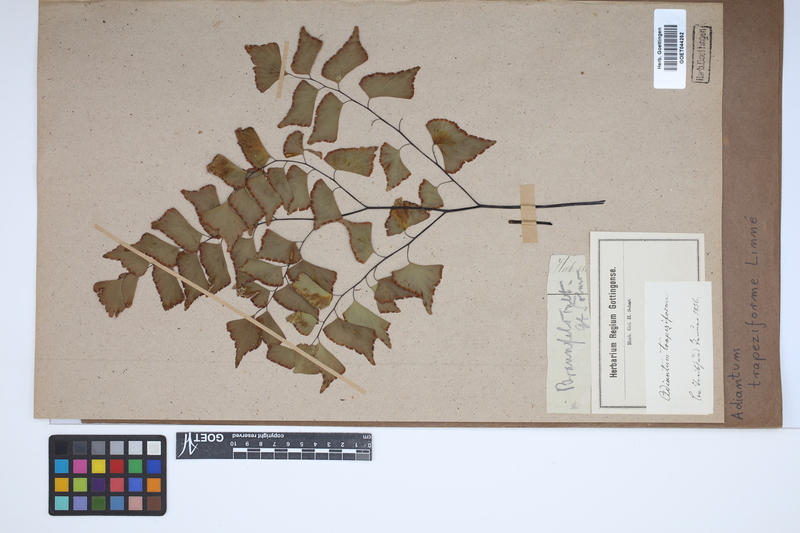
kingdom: Plantae
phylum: Tracheophyta
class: Polypodiopsida
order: Polypodiales
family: Pteridaceae
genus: Adiantum
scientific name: Adiantum trapeziforme
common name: Diamond maidenhair
